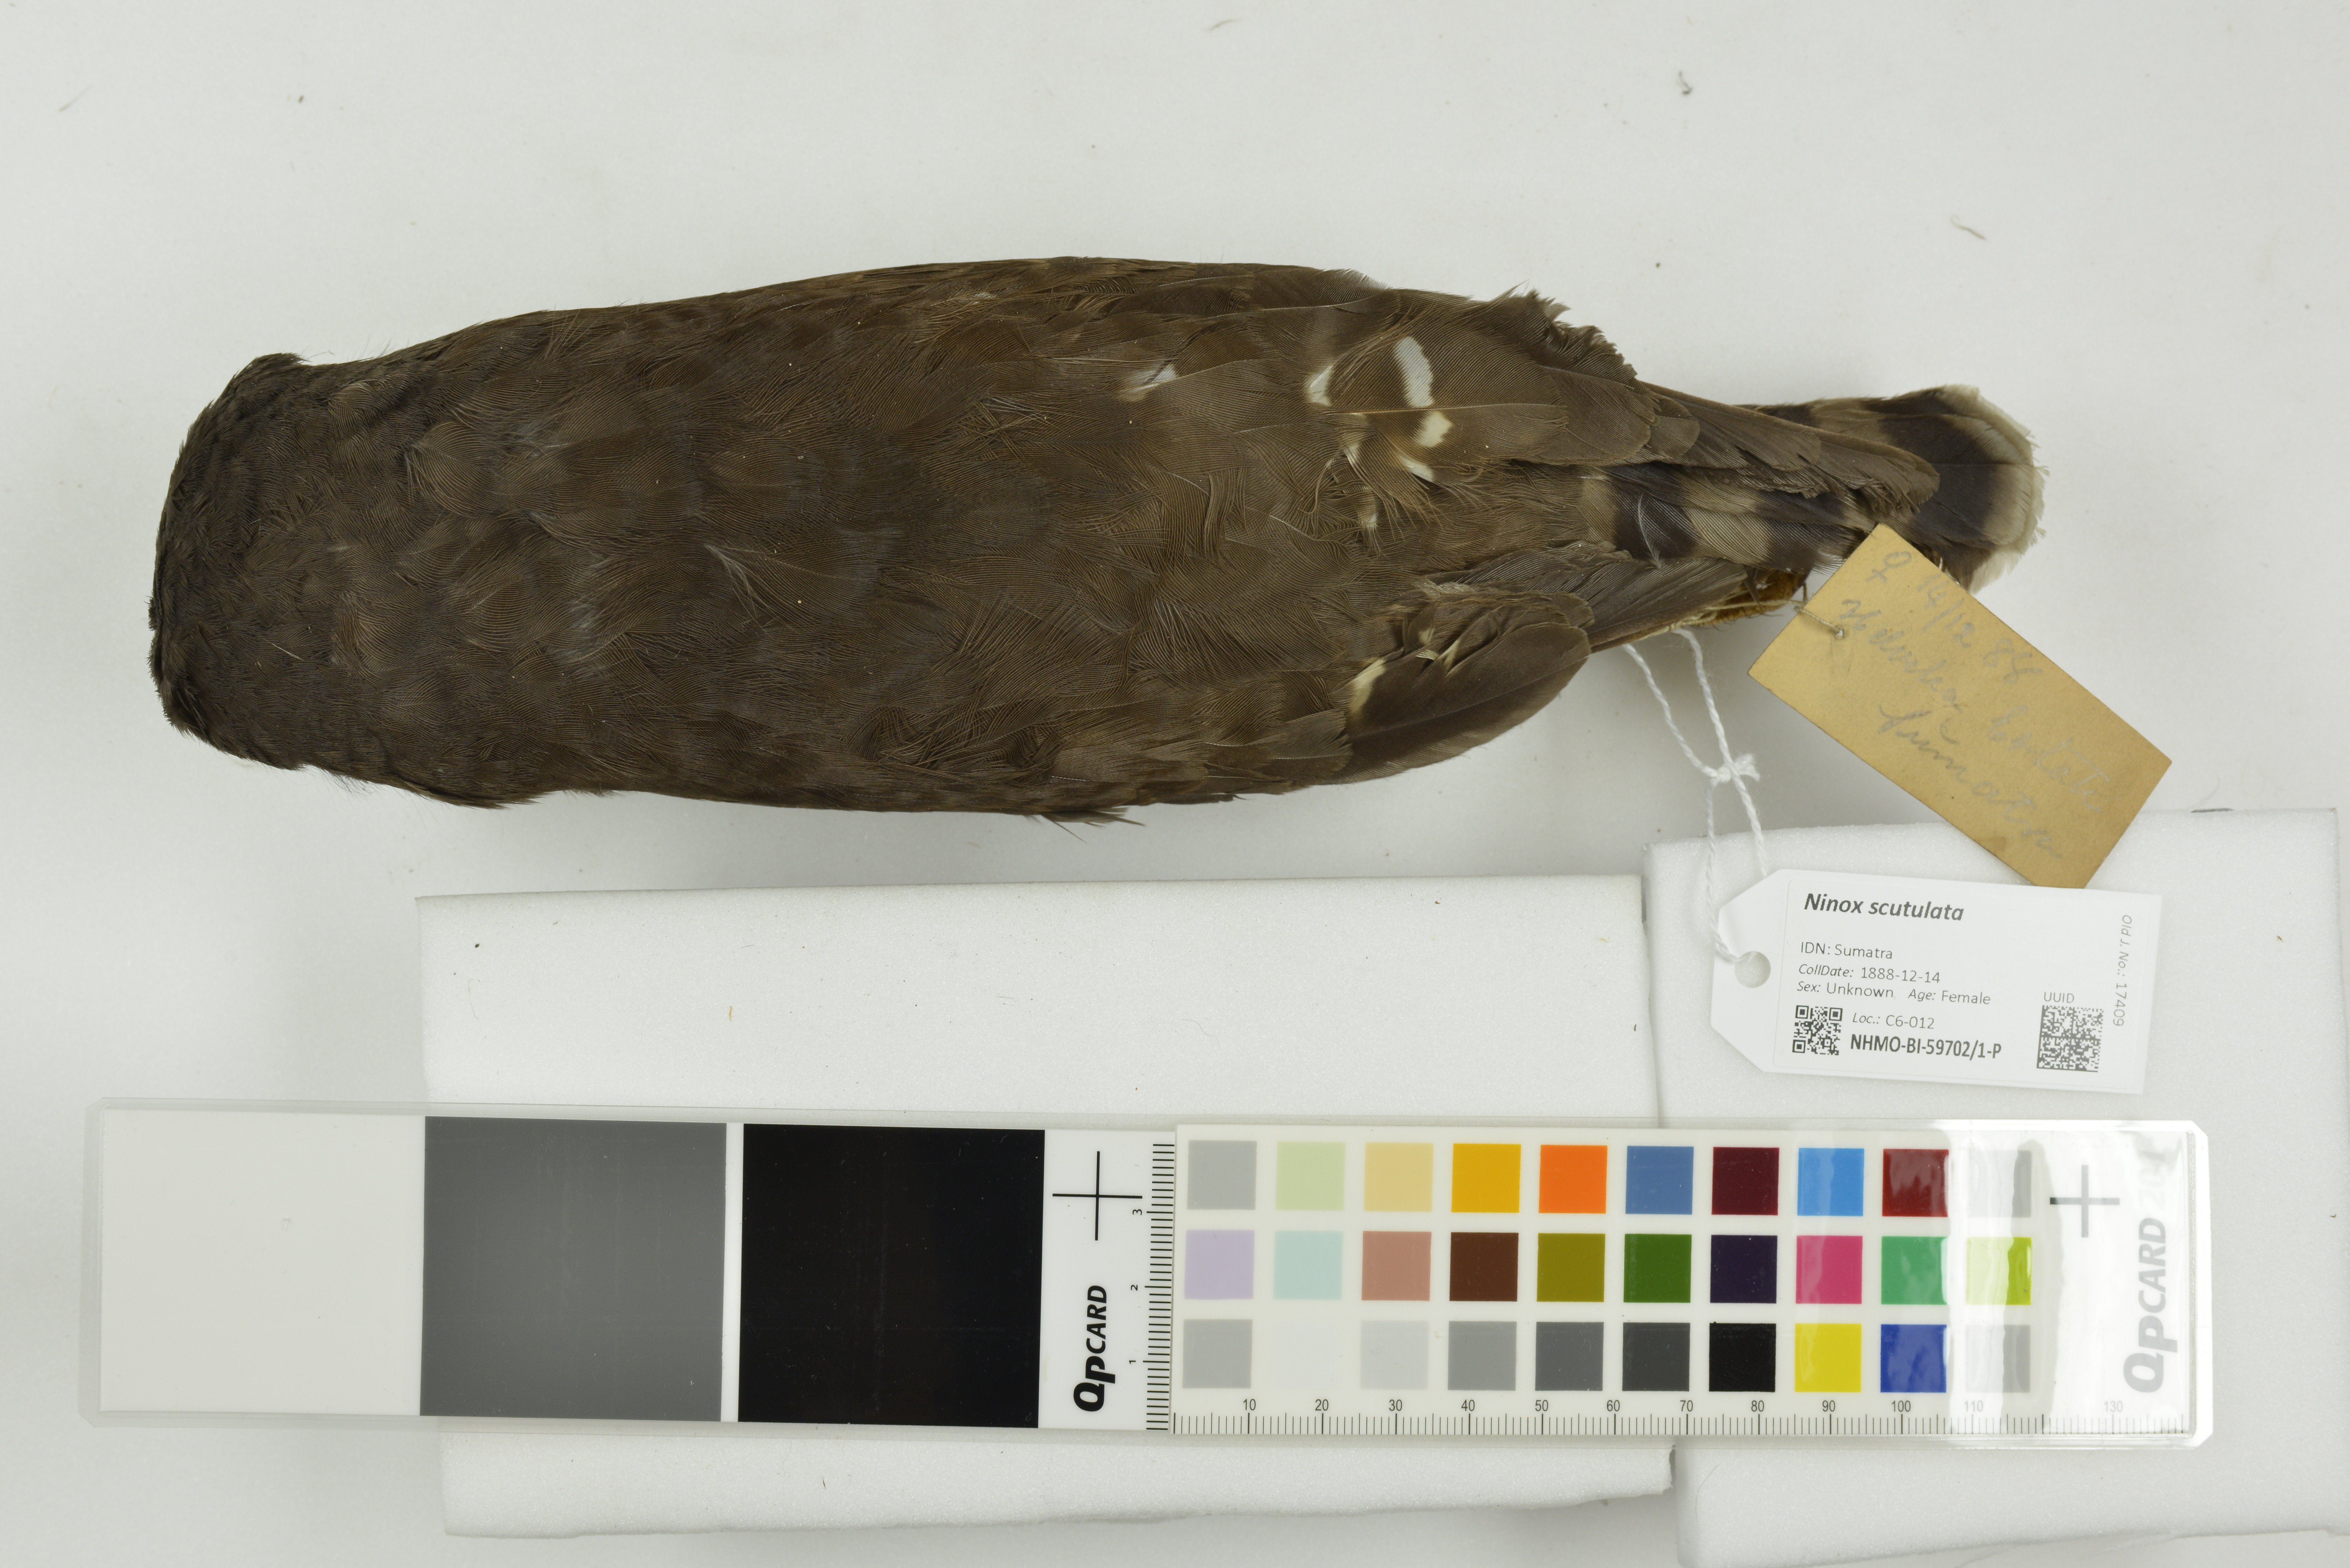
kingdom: Animalia
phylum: Chordata
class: Aves
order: Strigiformes
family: Strigidae
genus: Ninox
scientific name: Ninox scutulata
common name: Brown hawk-owl
